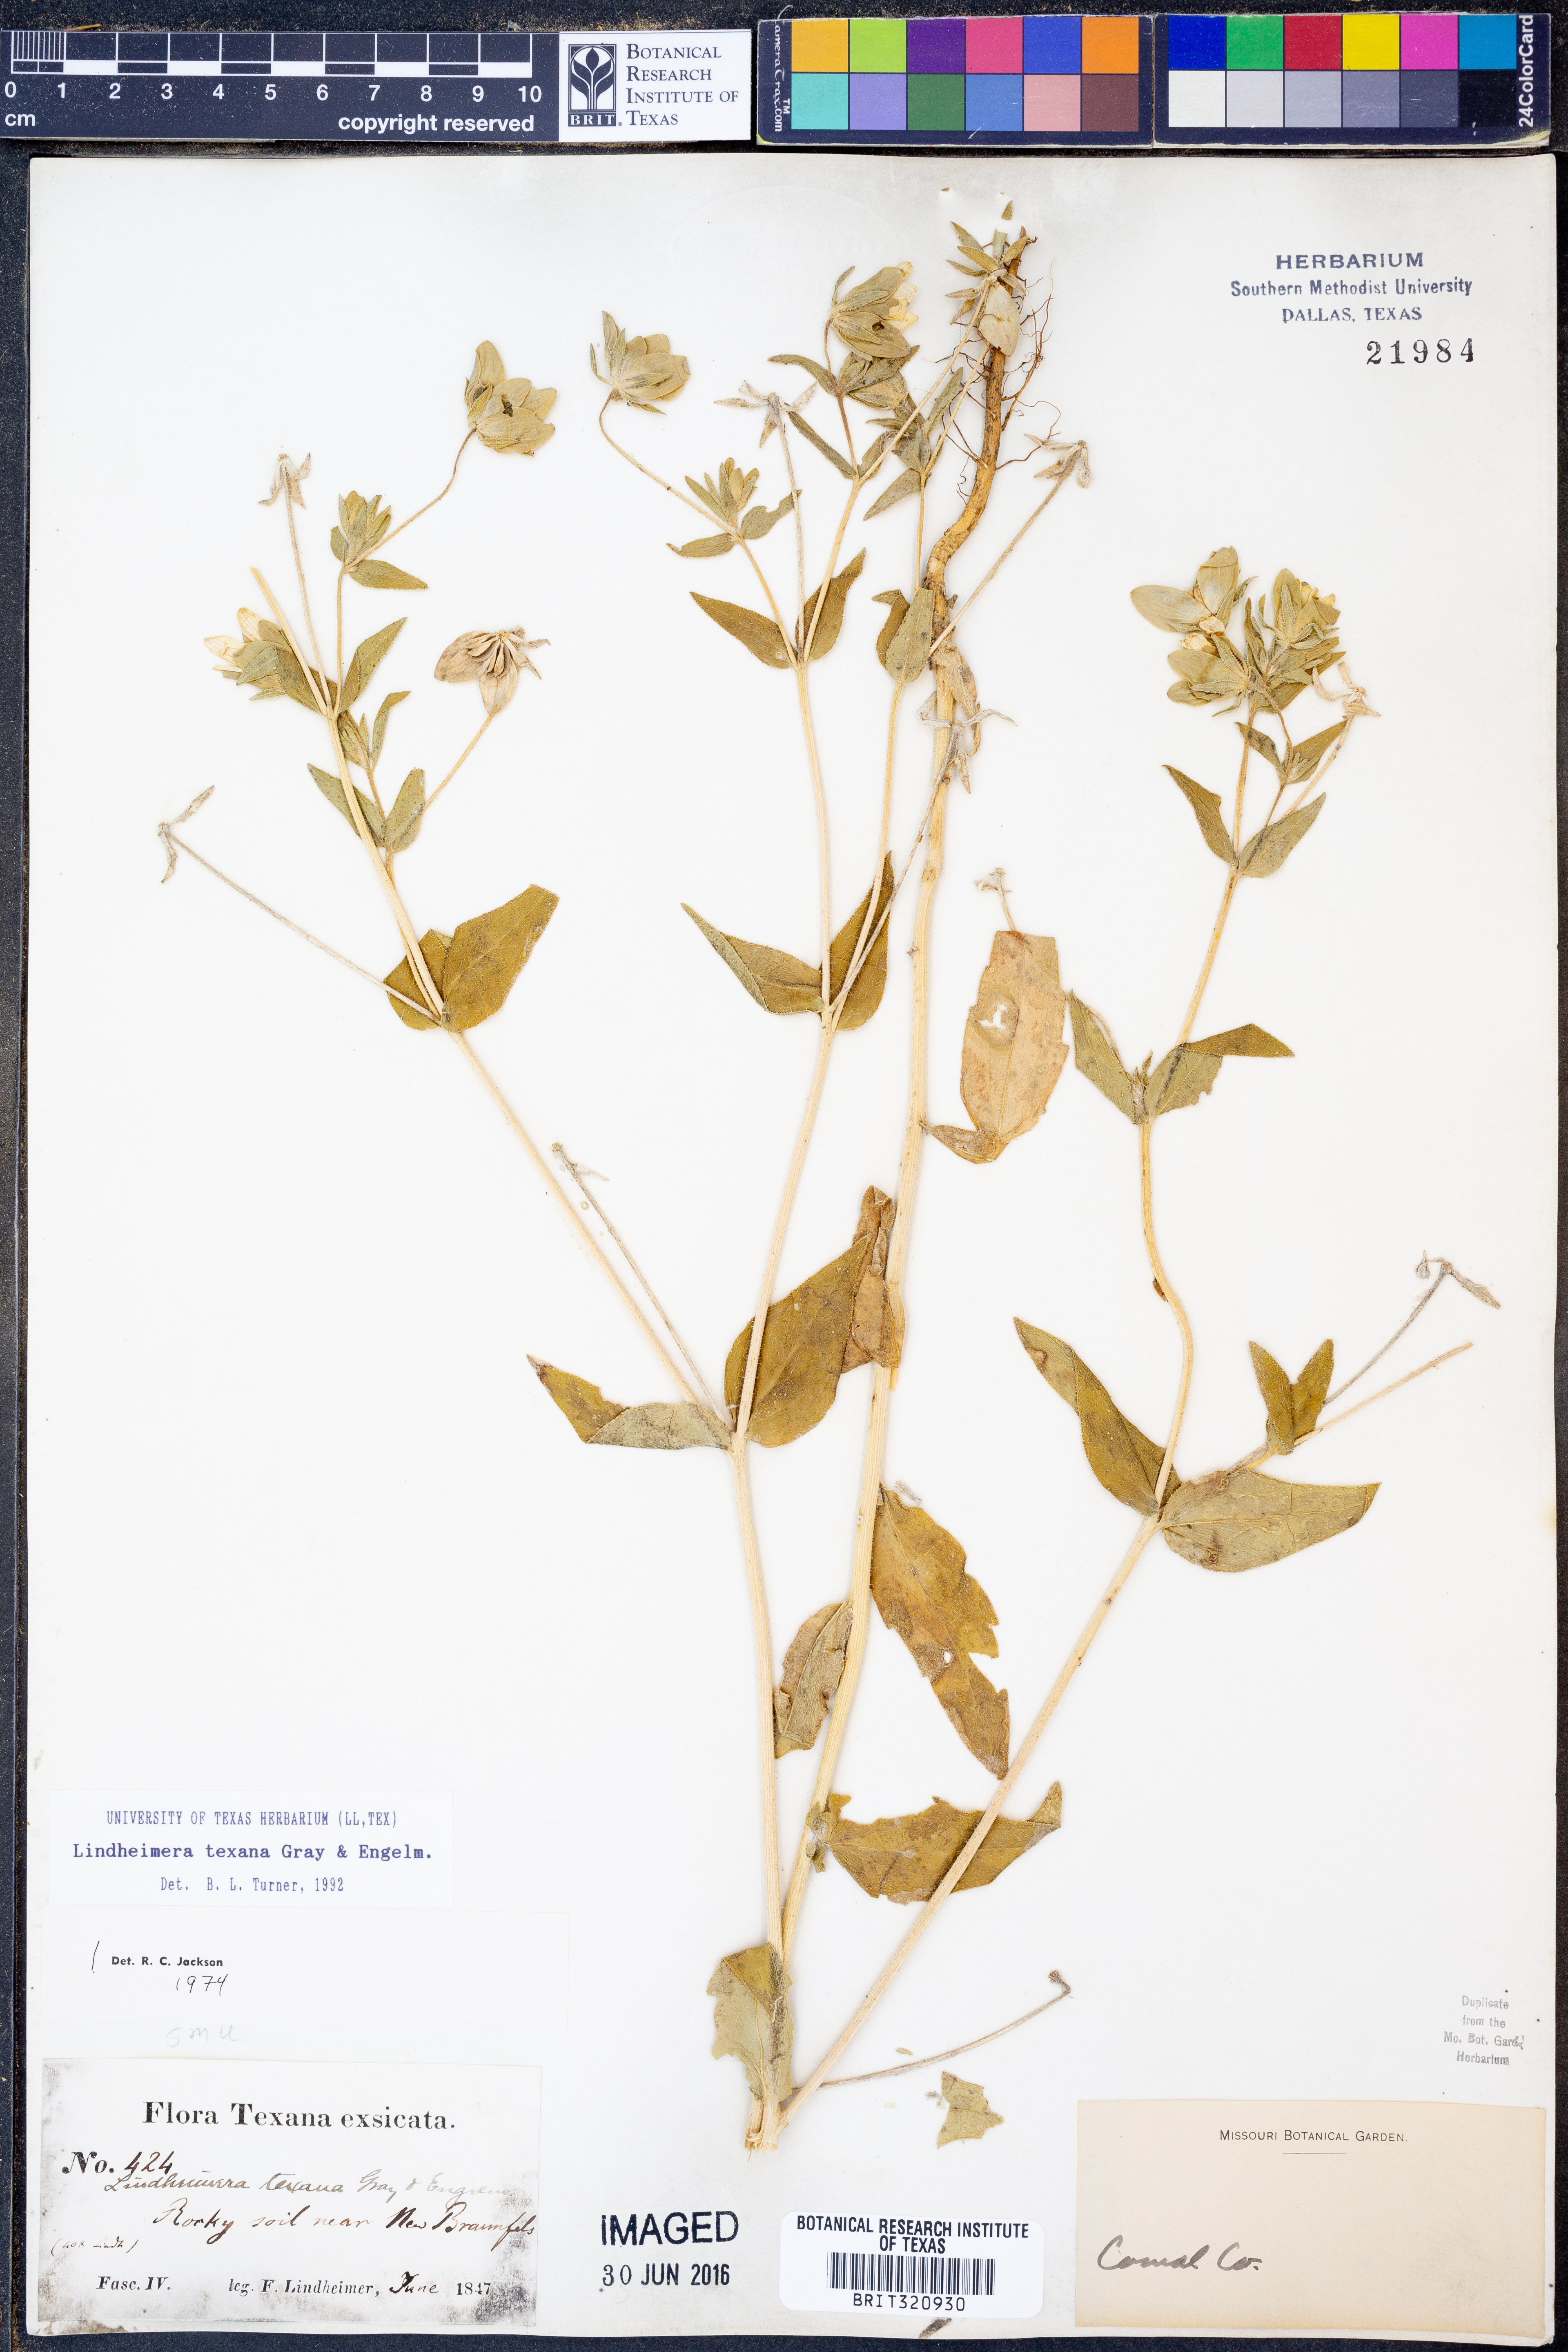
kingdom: Plantae
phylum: Tracheophyta
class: Magnoliopsida
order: Asterales
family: Asteraceae
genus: Lindheimera
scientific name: Lindheimera texana
